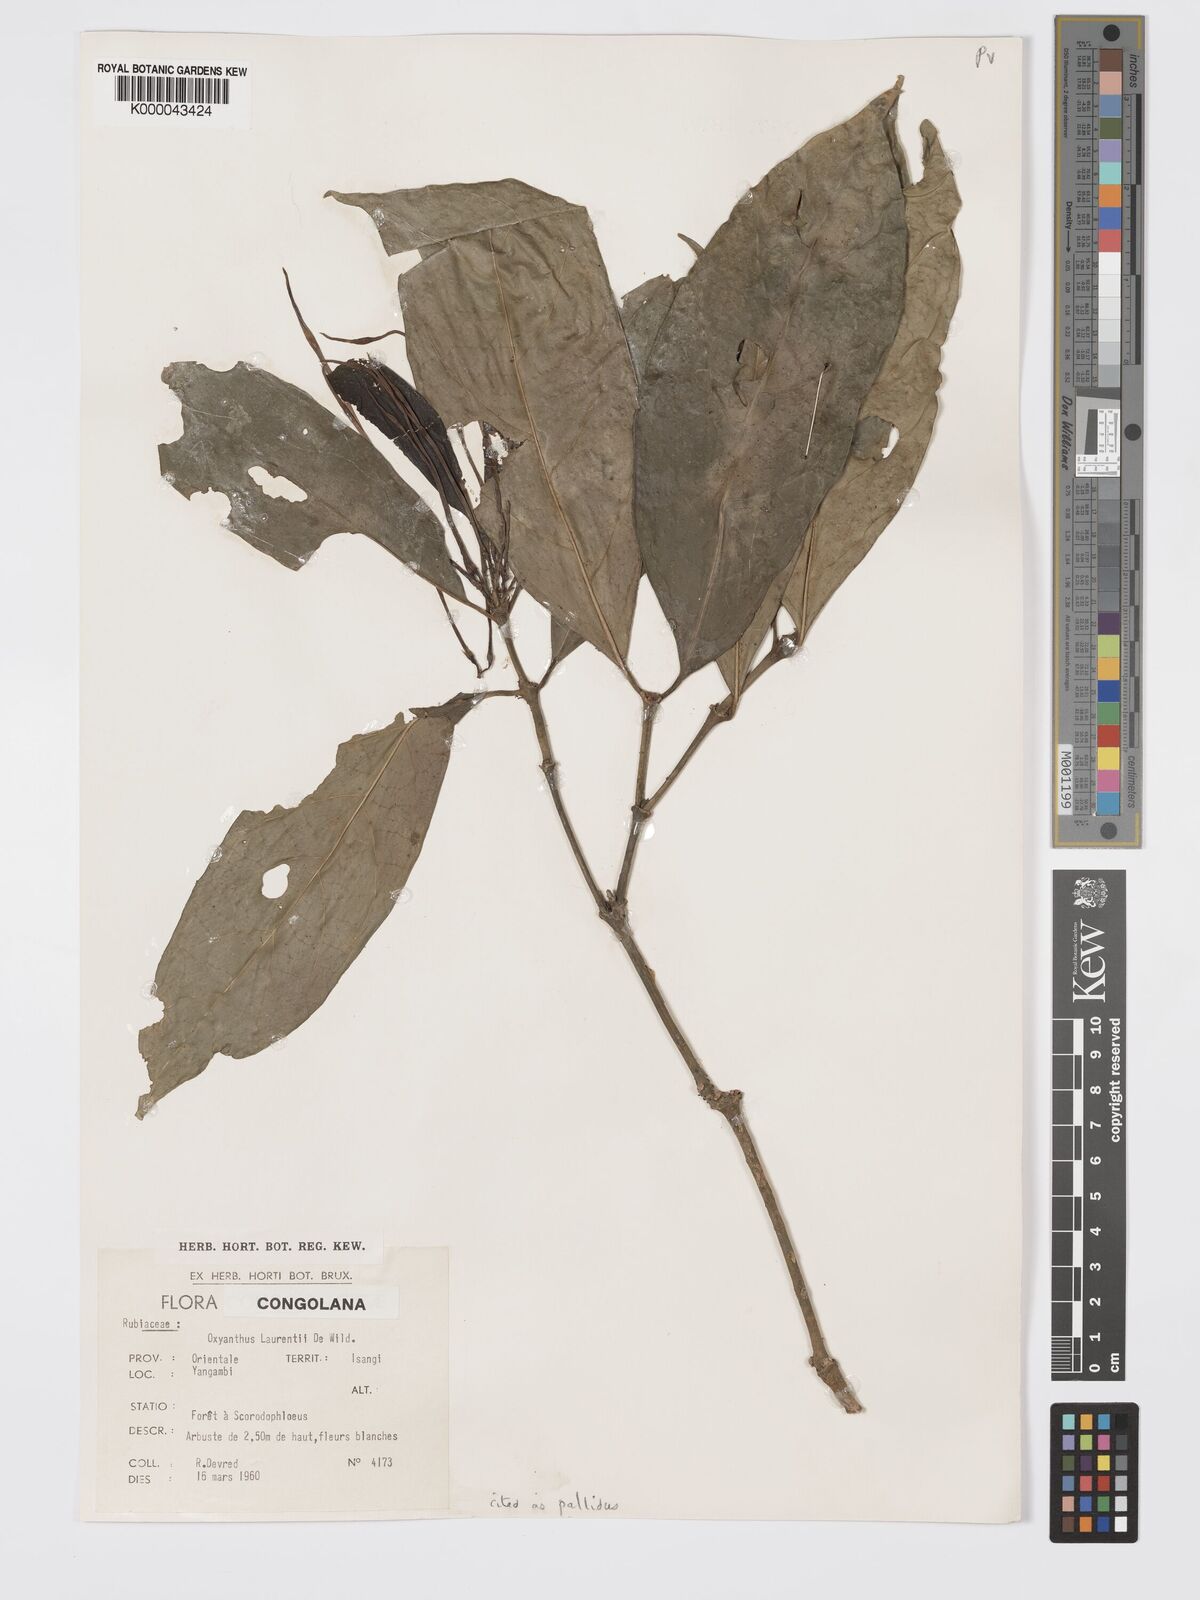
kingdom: Plantae
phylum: Tracheophyta
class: Magnoliopsida
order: Gentianales
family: Rubiaceae
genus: Oxyanthus
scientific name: Oxyanthus pallidus
